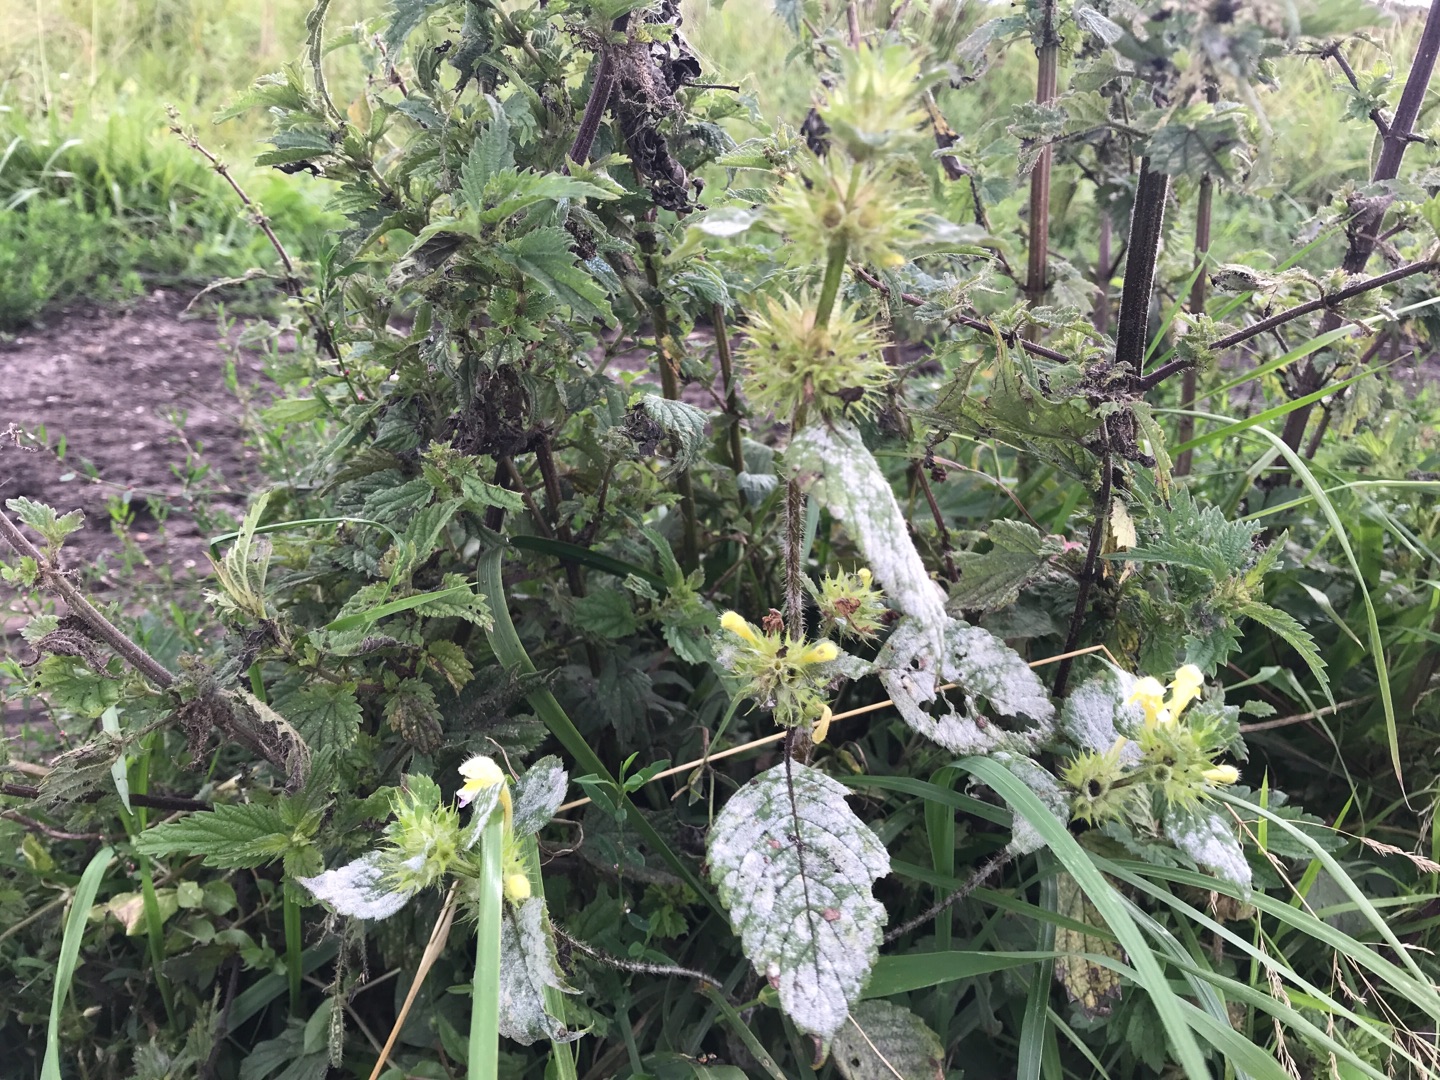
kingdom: Plantae
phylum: Tracheophyta
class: Magnoliopsida
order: Lamiales
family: Lamiaceae
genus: Galeopsis
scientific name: Galeopsis speciosa
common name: Hamp-hanekro
